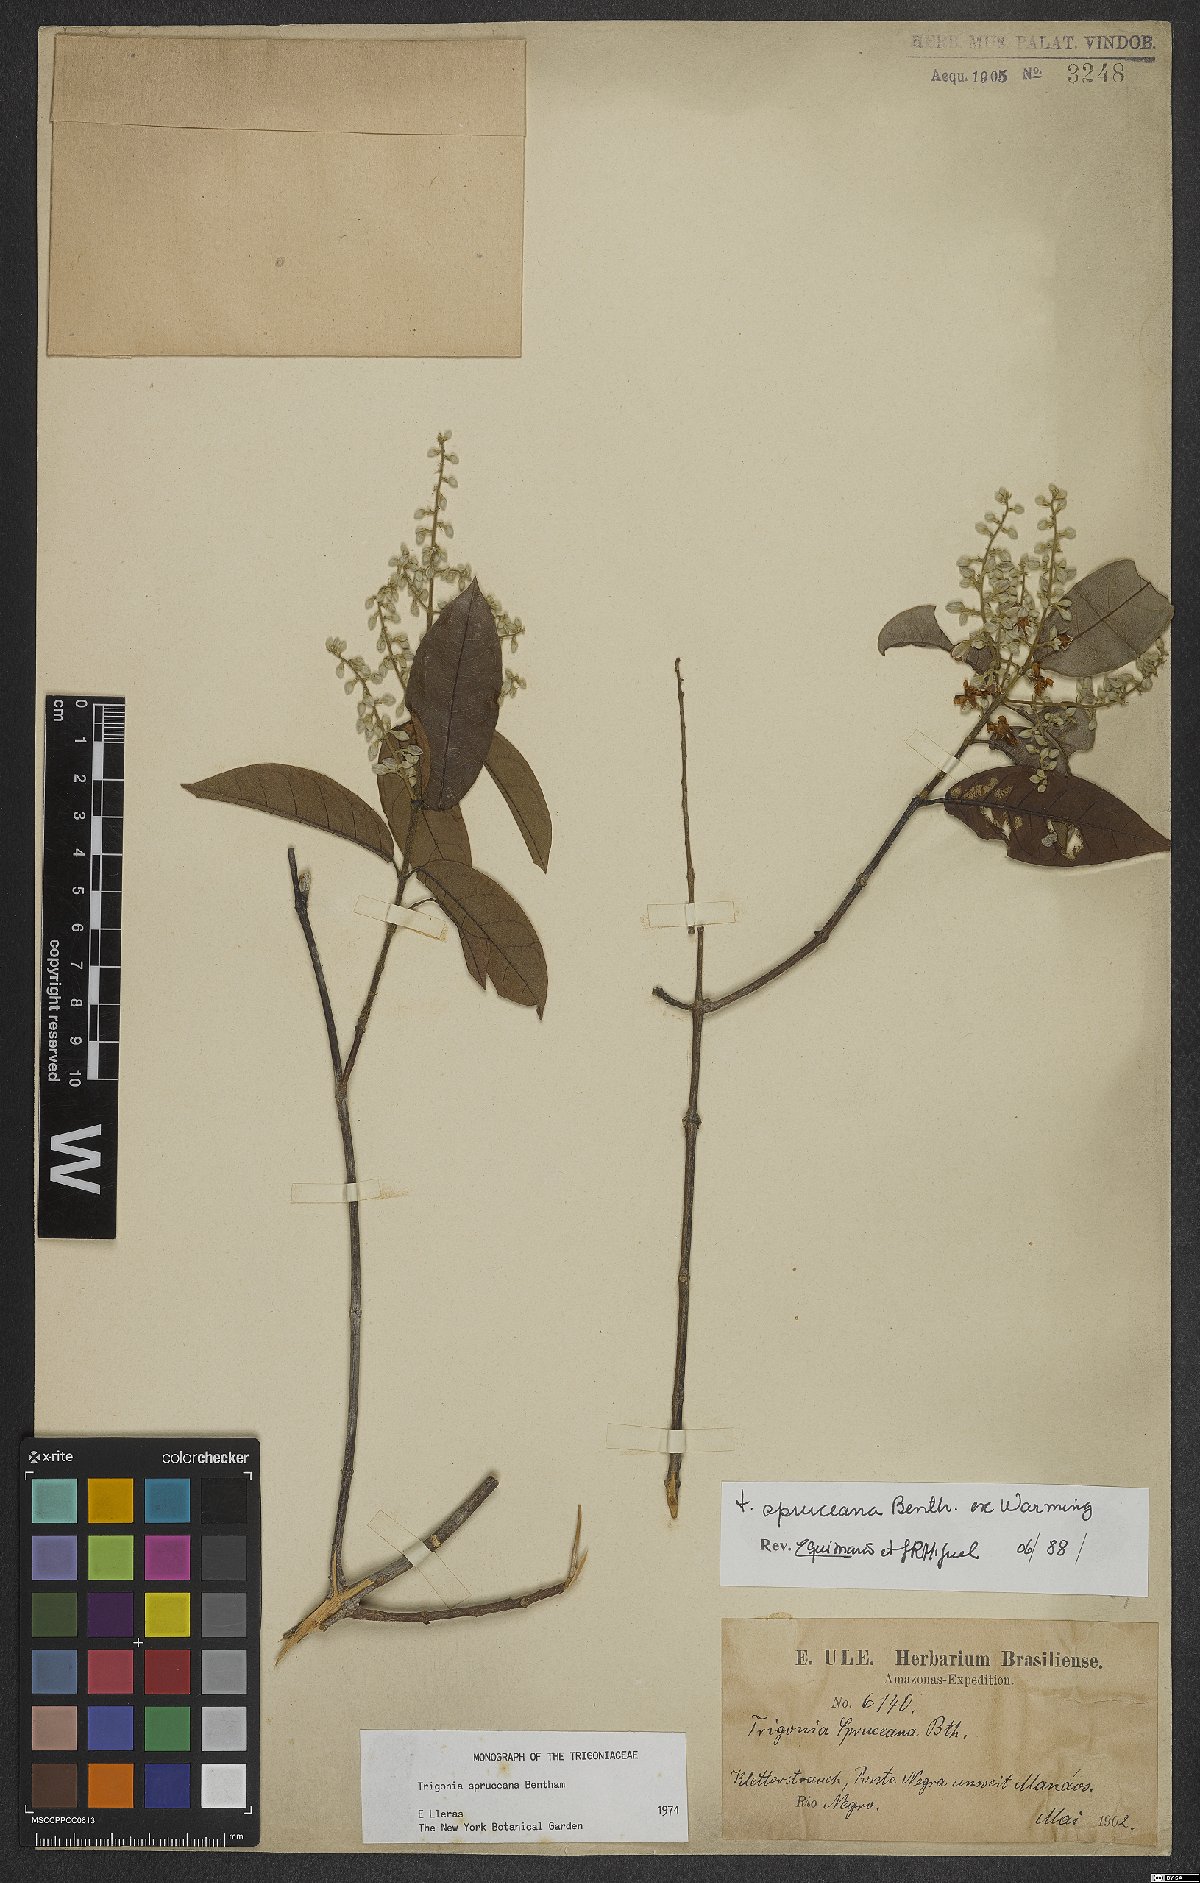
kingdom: Plantae
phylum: Tracheophyta
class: Magnoliopsida
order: Malpighiales
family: Trigoniaceae
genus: Trigonia
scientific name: Trigonia spruceana
